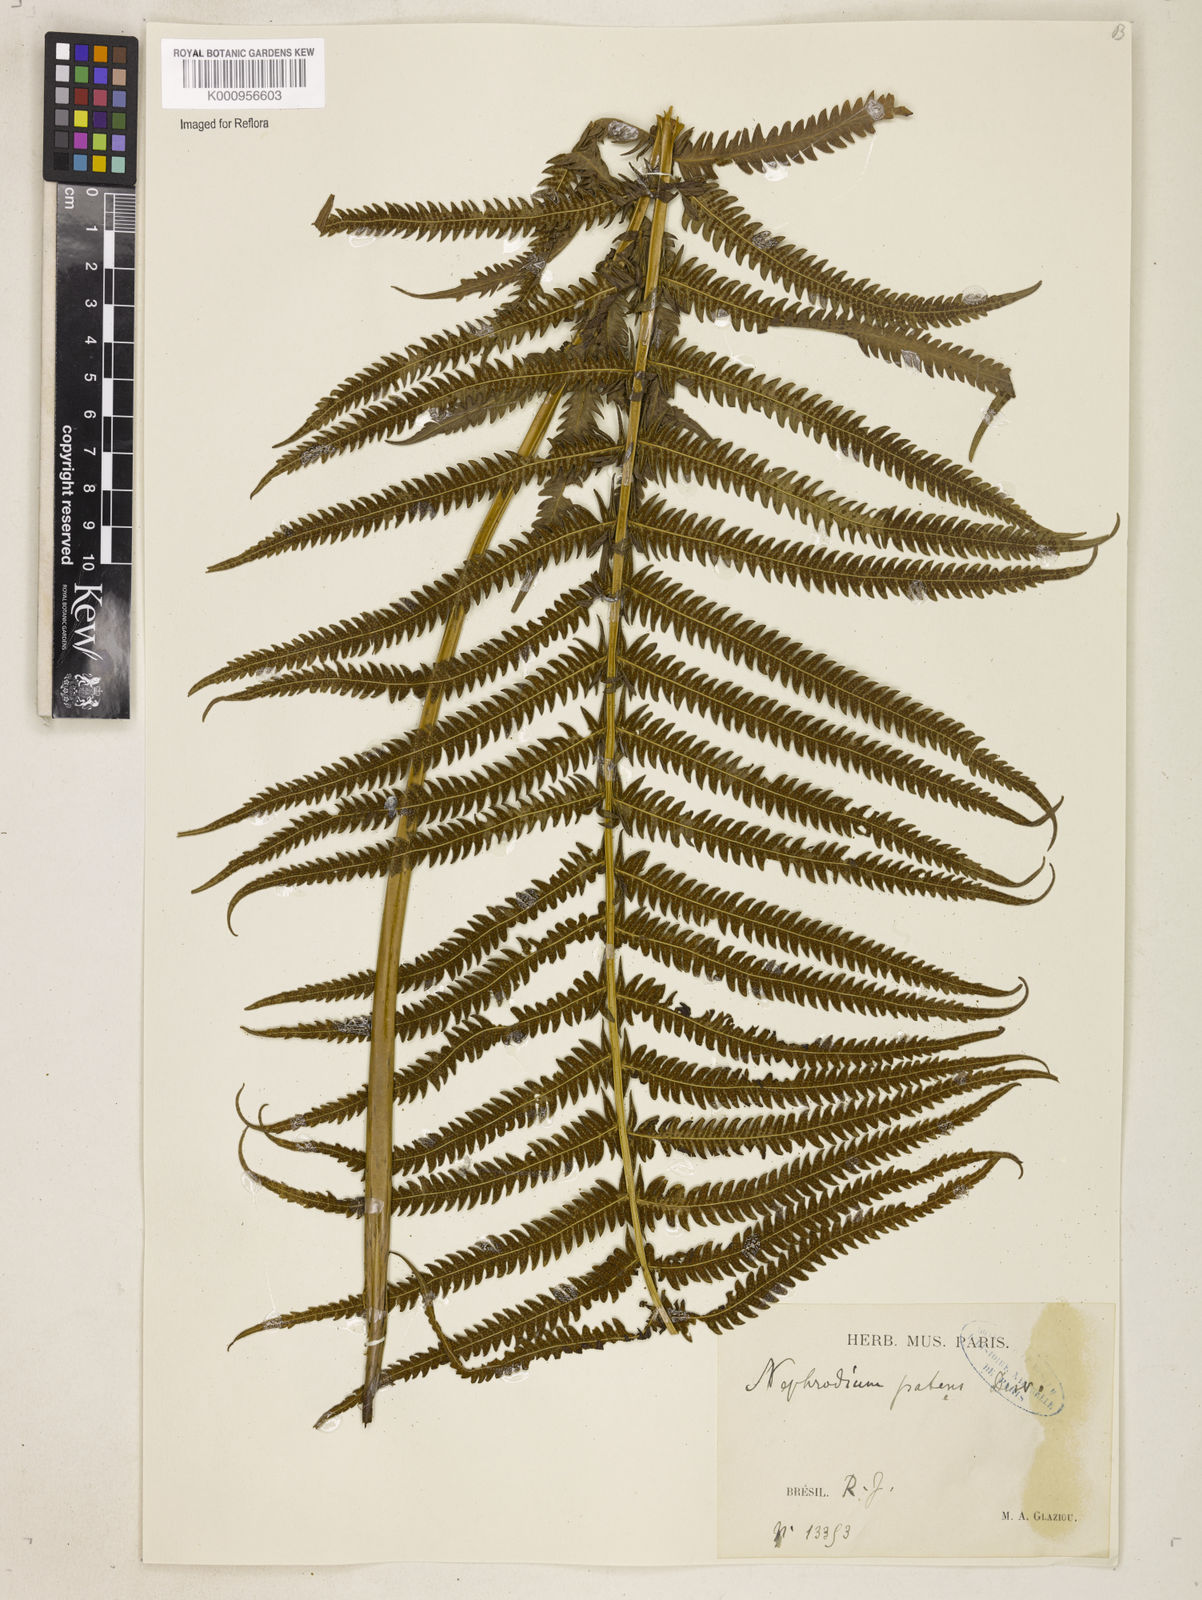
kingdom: Plantae
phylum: Tracheophyta
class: Polypodiopsida
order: Polypodiales
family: Thelypteridaceae
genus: Pelazoneuron
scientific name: Pelazoneuron patens
